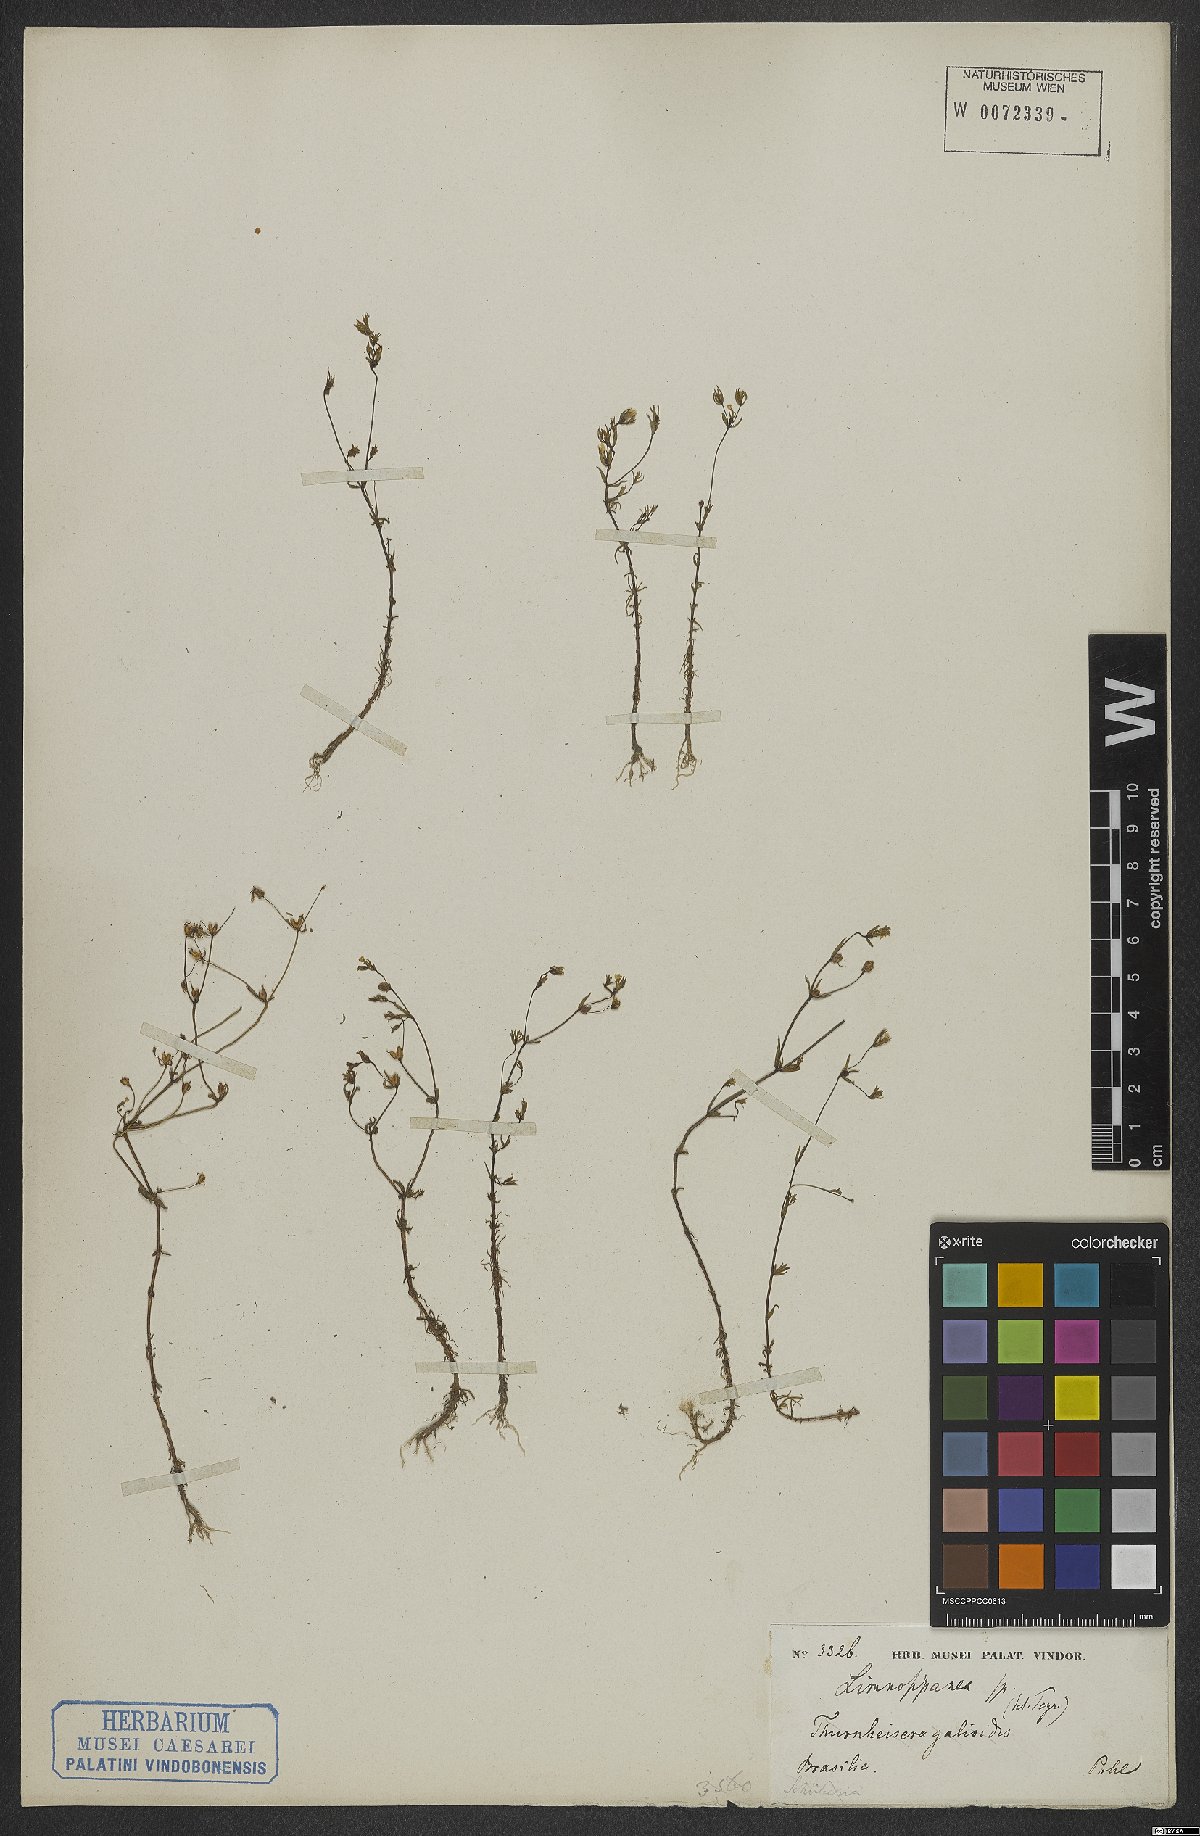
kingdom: Plantae
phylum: Tracheophyta
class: Magnoliopsida
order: Gentianales
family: Rubiaceae
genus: Limnosipanea
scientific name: Limnosipanea
